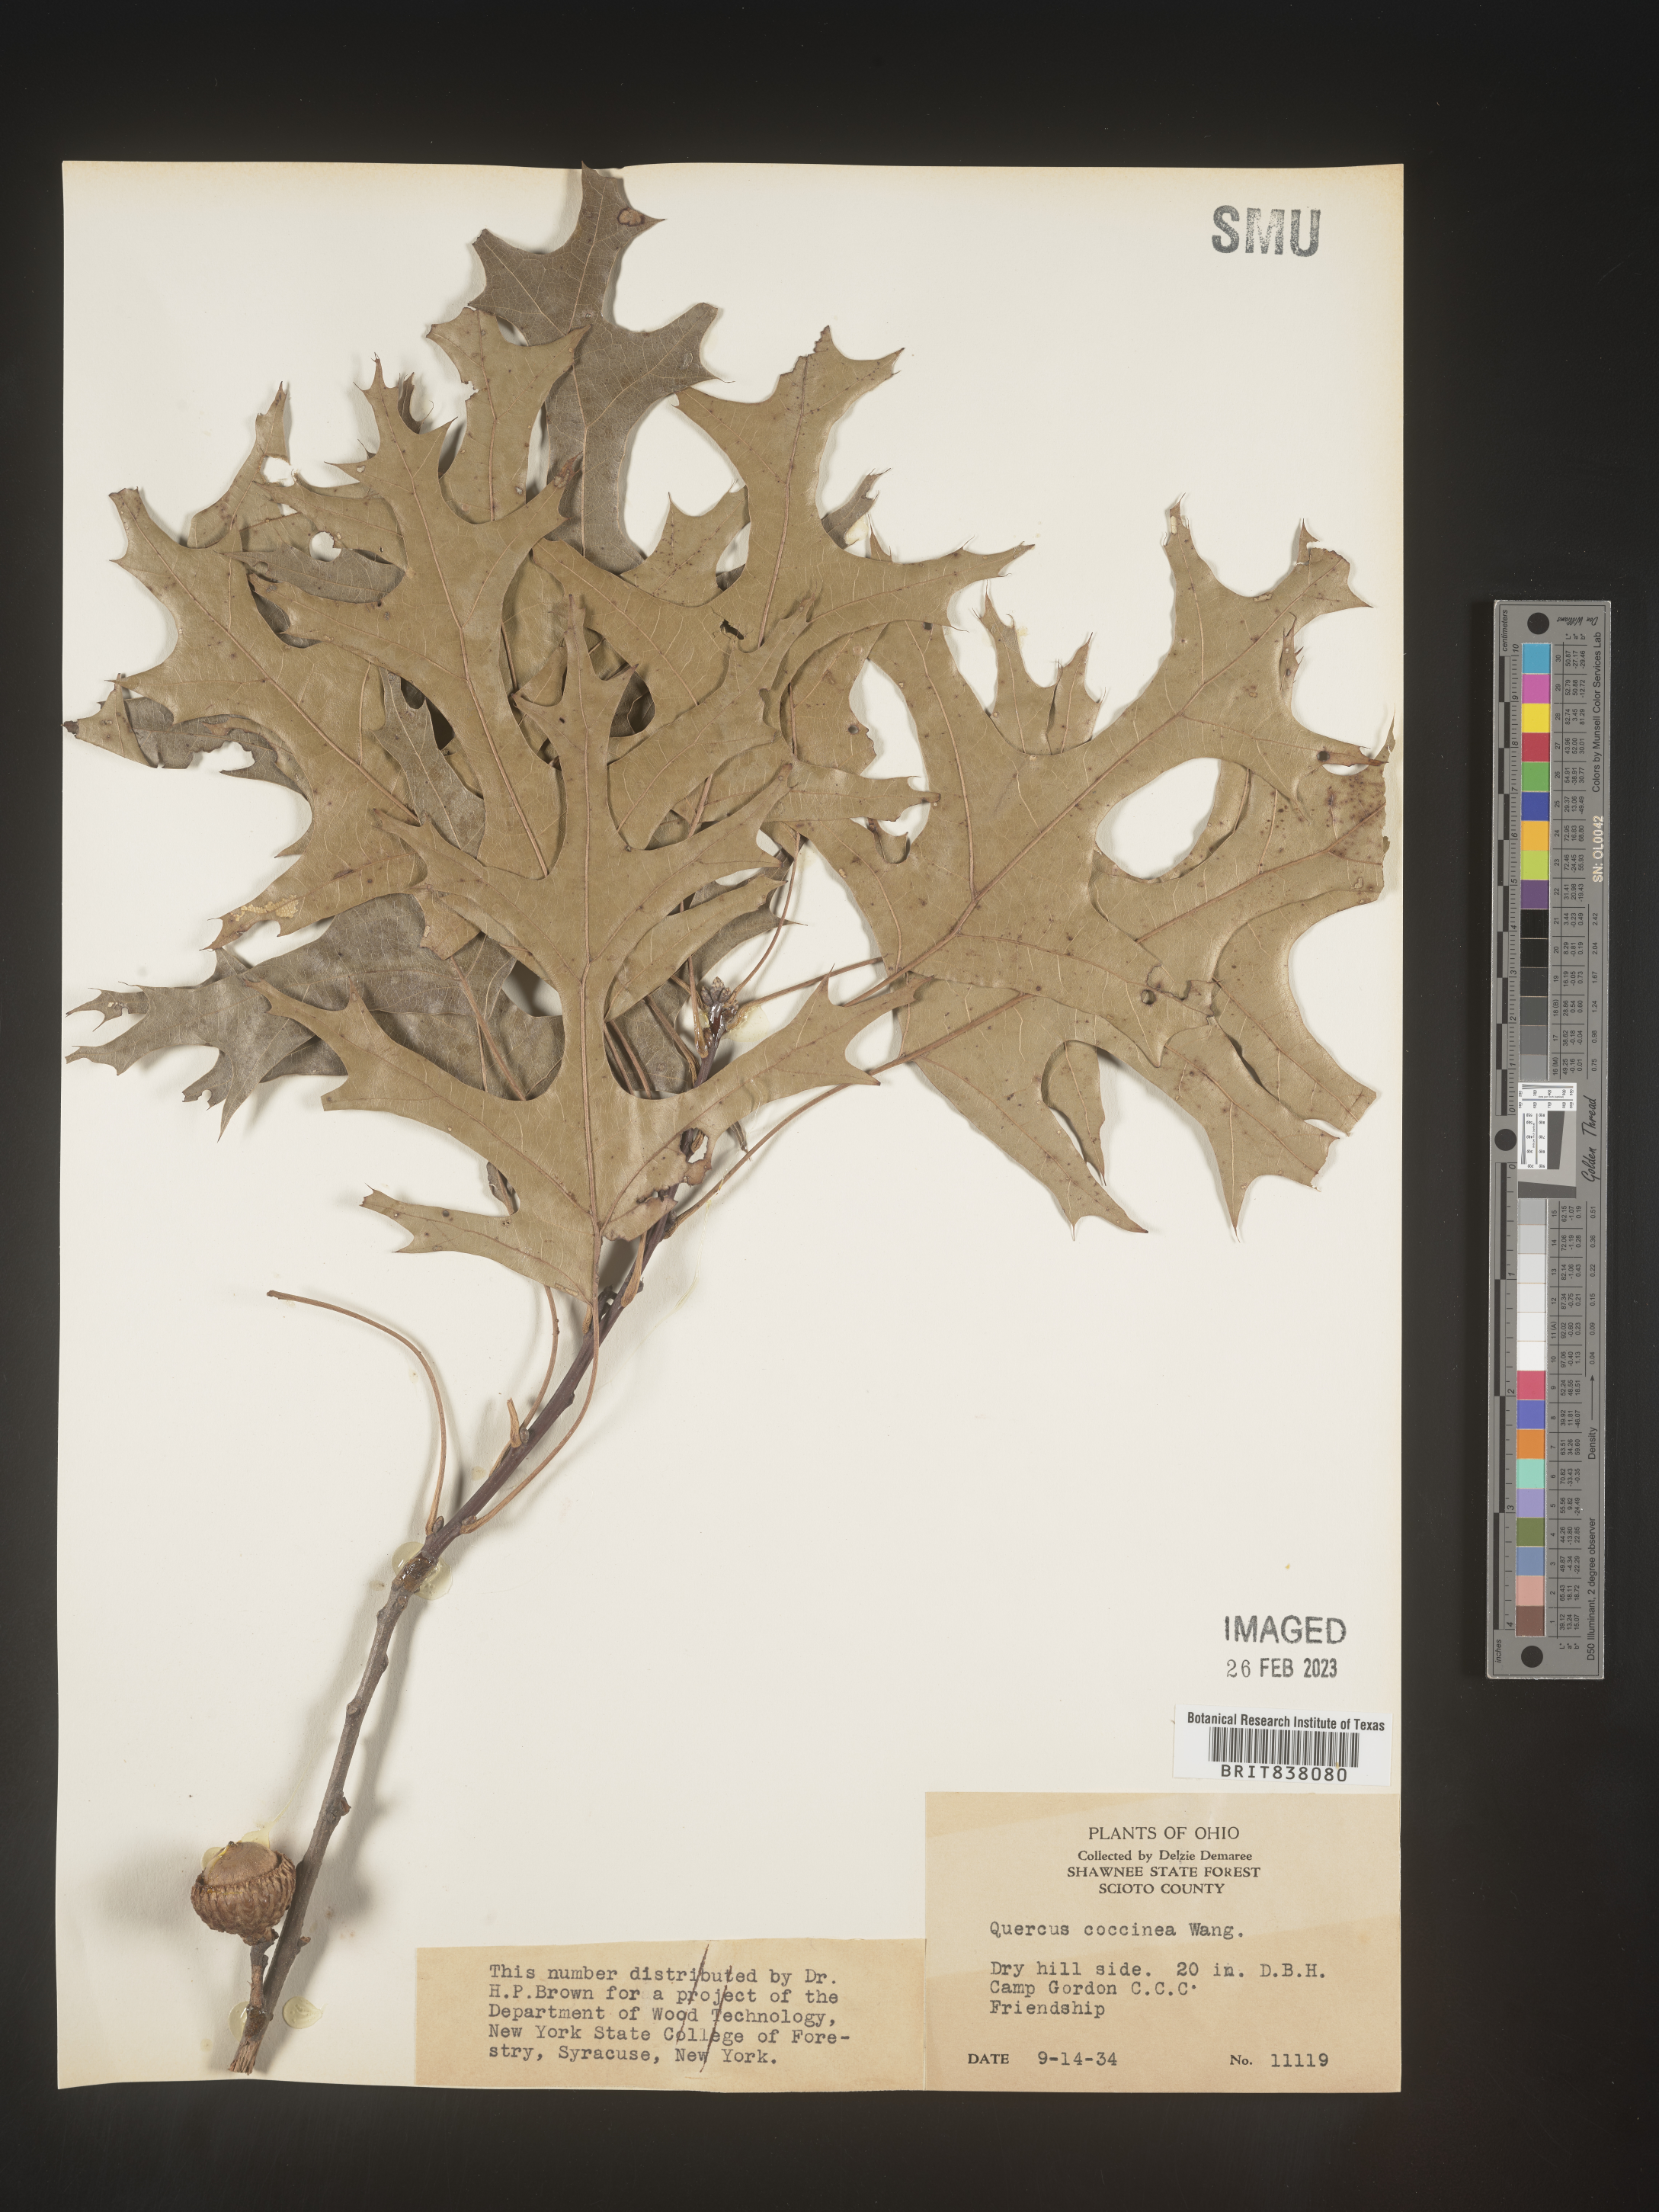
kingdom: Plantae
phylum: Tracheophyta
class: Magnoliopsida
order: Fagales
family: Fagaceae
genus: Quercus
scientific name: Quercus coccinea
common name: Scarlet oak
